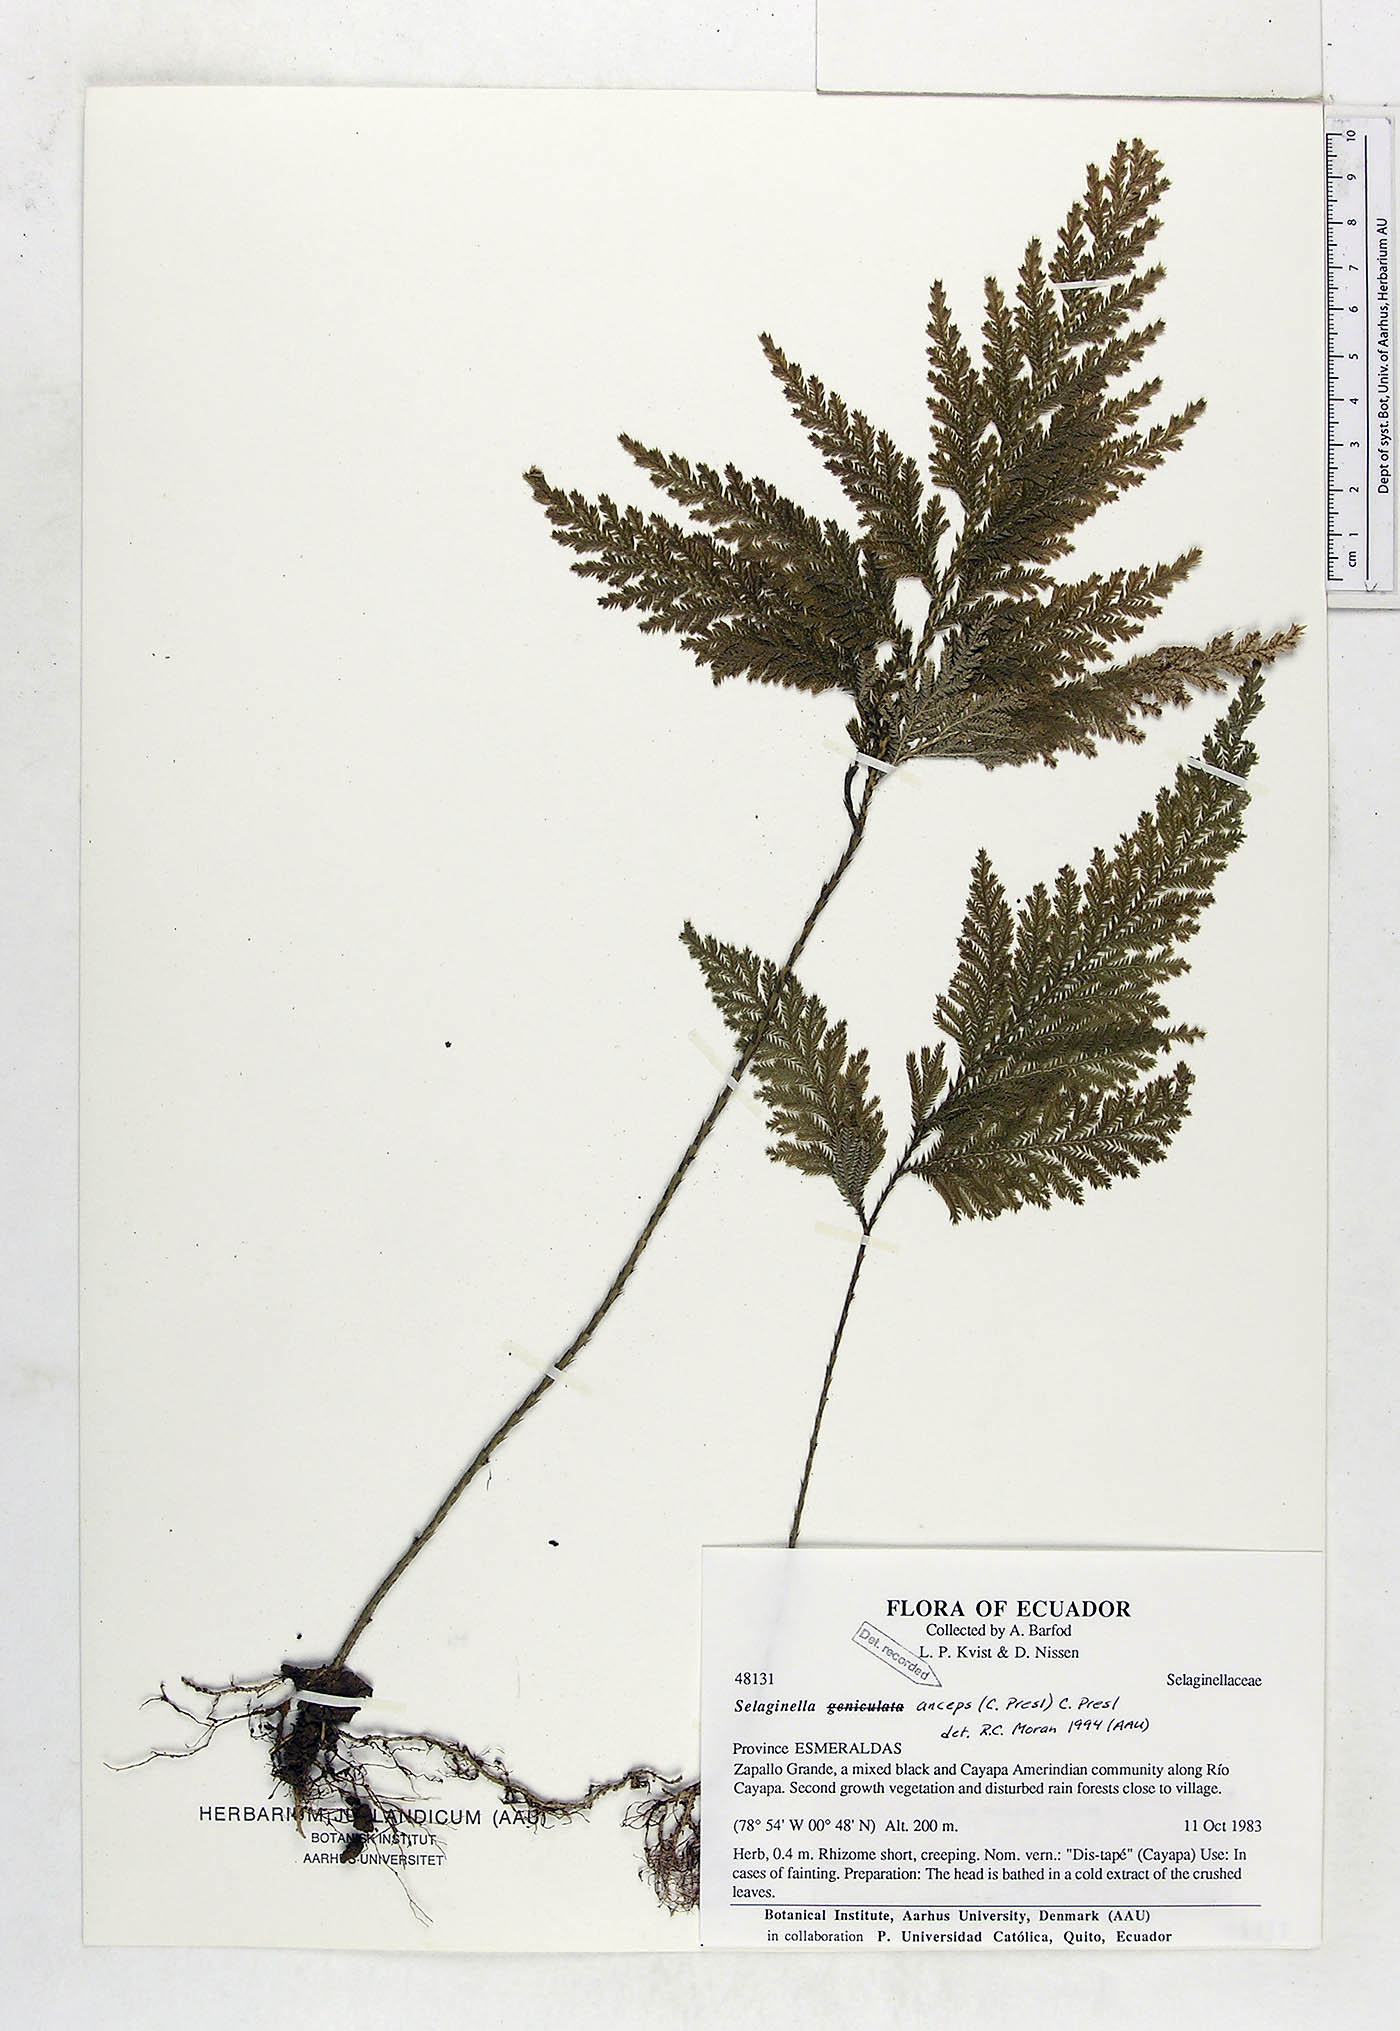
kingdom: Plantae
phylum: Tracheophyta
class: Lycopodiopsida
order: Selaginellales
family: Selaginellaceae
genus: Selaginella
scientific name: Selaginella anceps
